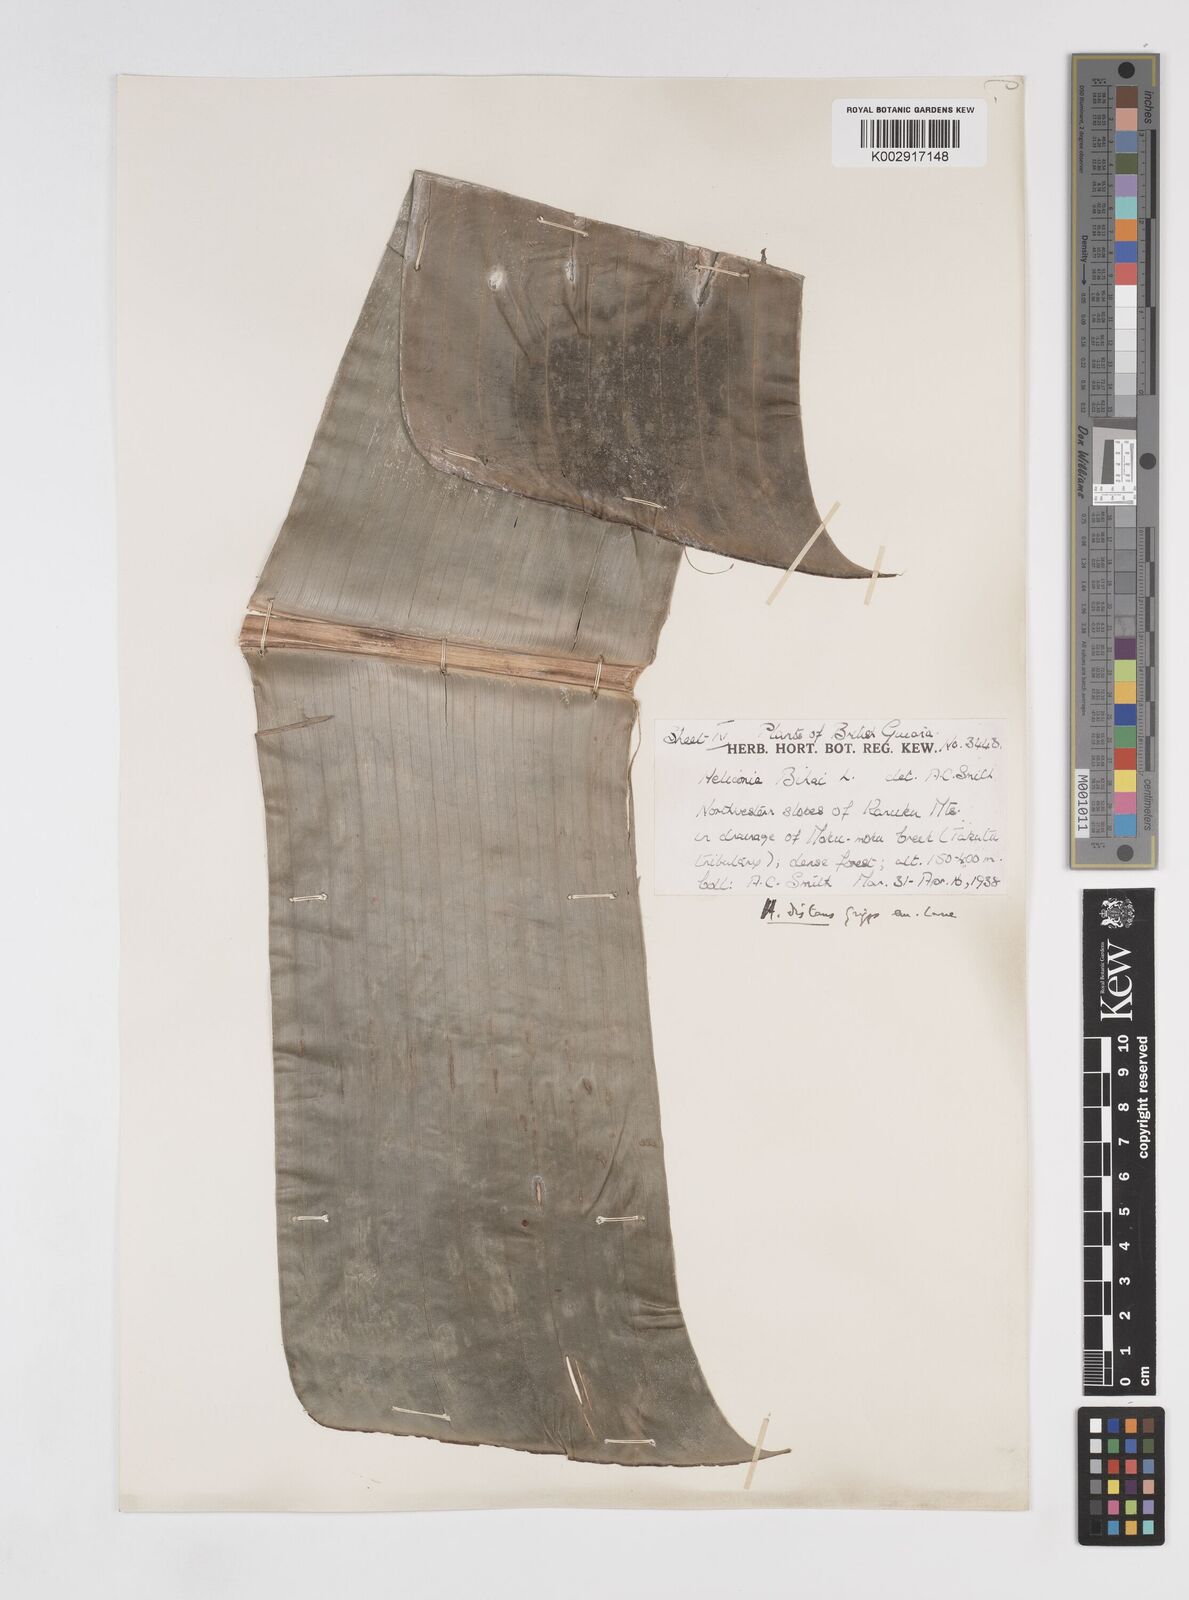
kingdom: Plantae
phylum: Tracheophyta
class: Liliopsida
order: Zingiberales
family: Heliconiaceae
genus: Heliconia
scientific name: Heliconia bihai
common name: Macaw flower
